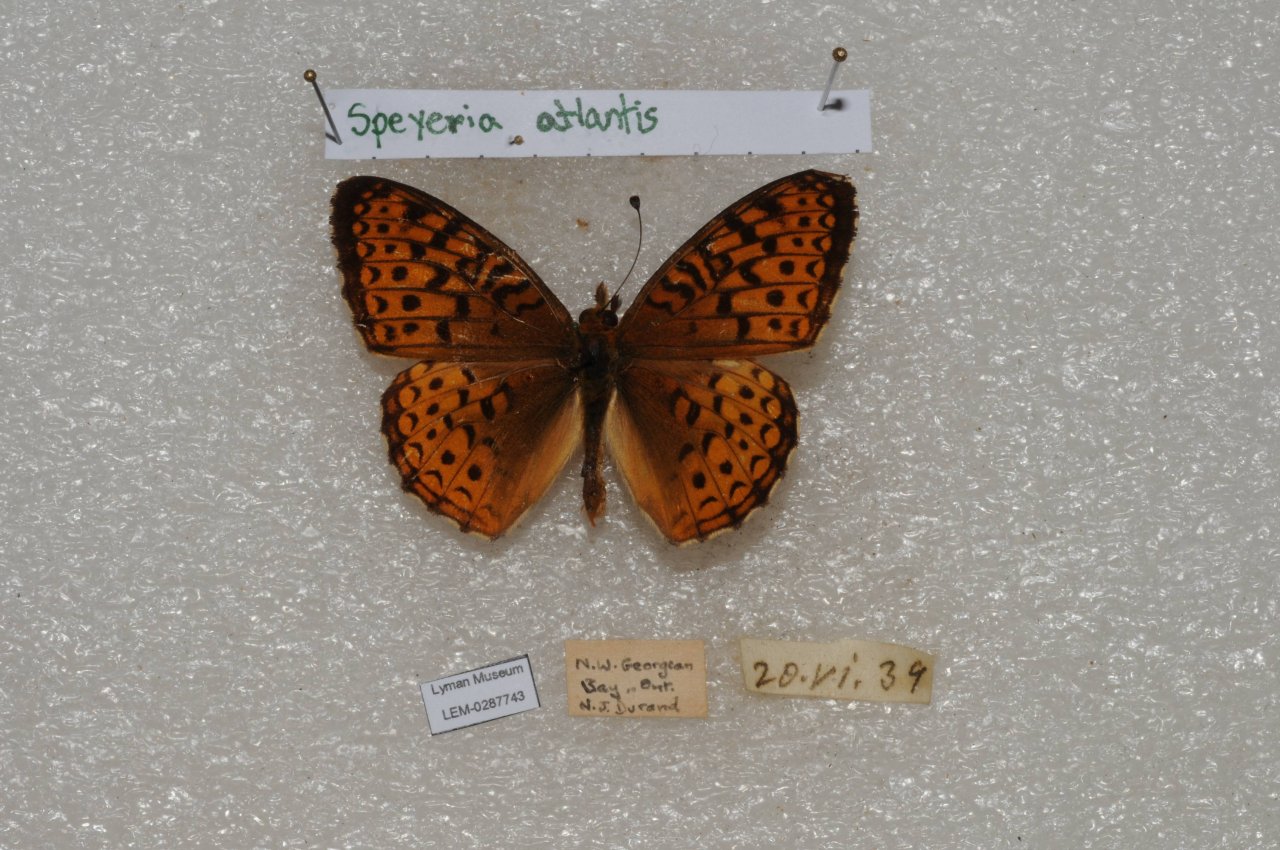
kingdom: Animalia
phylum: Arthropoda
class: Insecta
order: Lepidoptera
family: Nymphalidae
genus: Speyeria
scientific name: Speyeria aphrodite
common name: Aphrodite Fritillary
